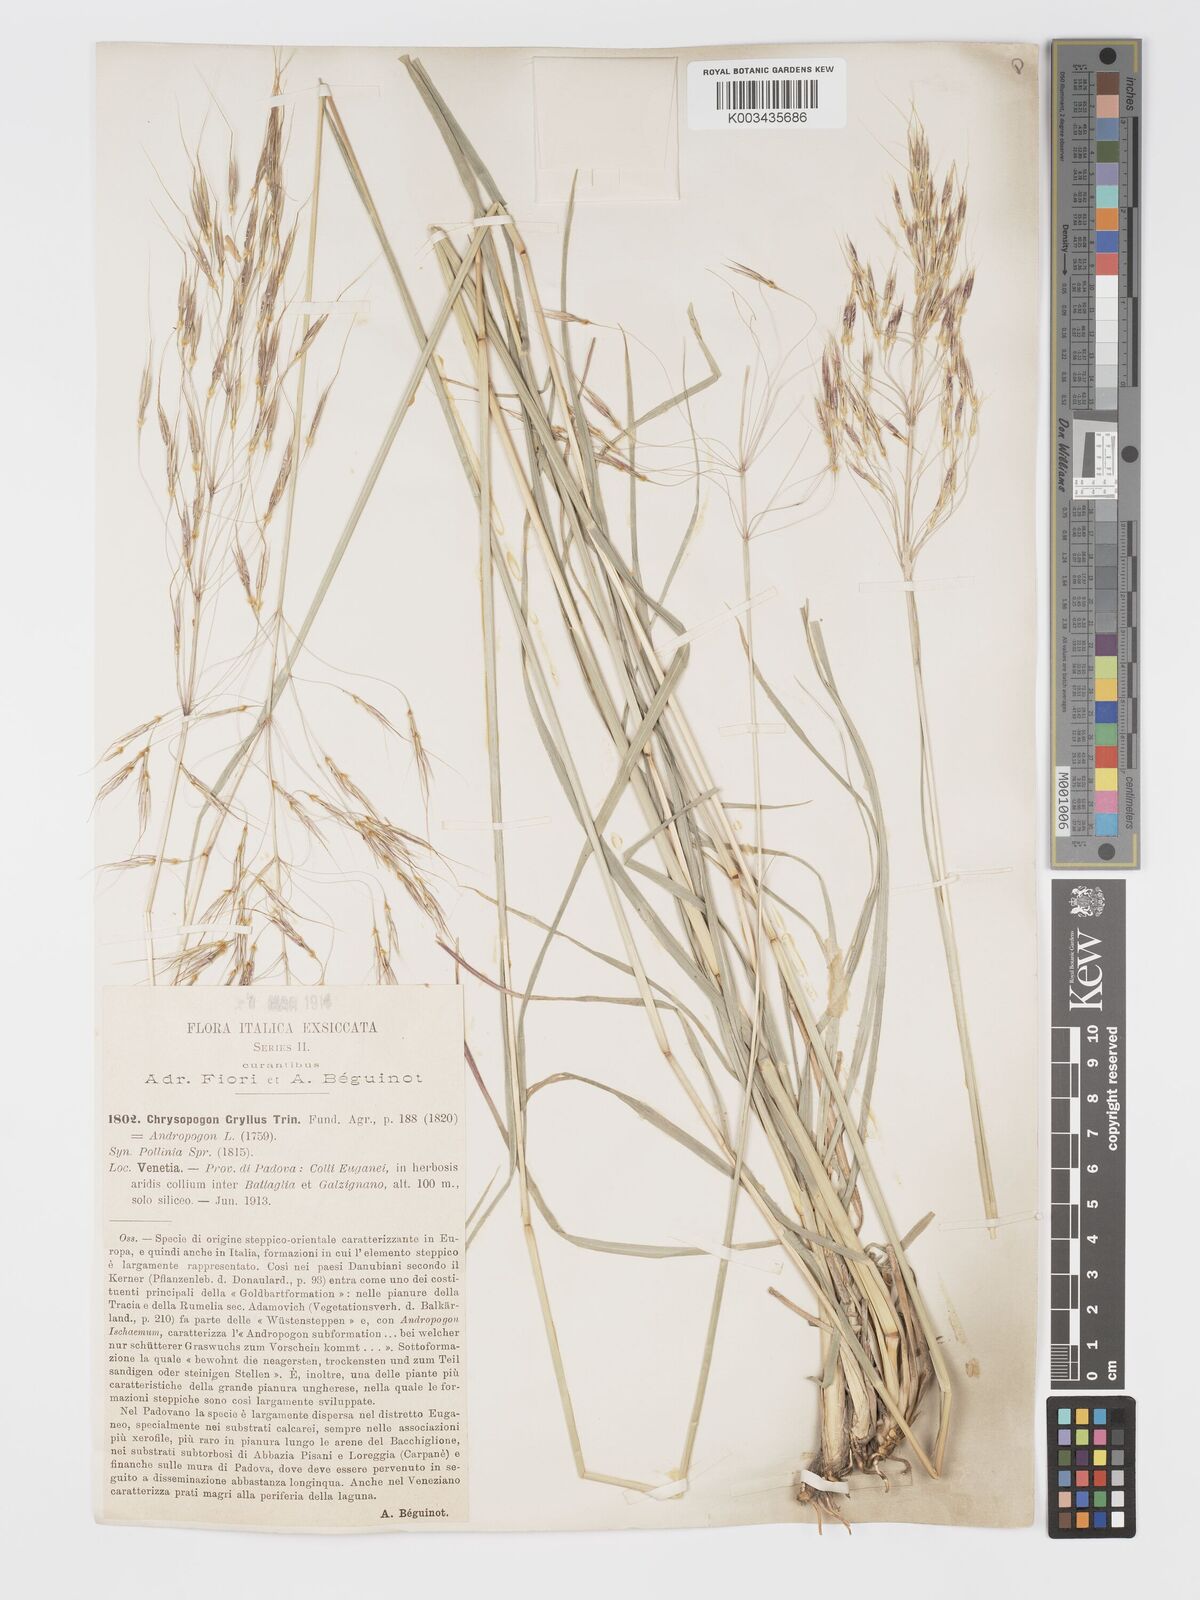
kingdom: Plantae
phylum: Tracheophyta
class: Liliopsida
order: Poales
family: Poaceae
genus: Chrysopogon
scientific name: Chrysopogon gryllus
